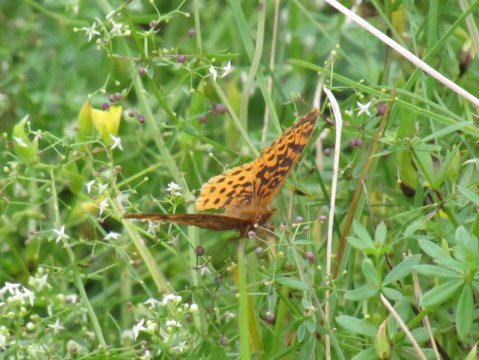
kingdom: Animalia
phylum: Arthropoda
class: Insecta
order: Lepidoptera
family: Nymphalidae
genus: Clossiana
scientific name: Clossiana toddi
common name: Meadow Fritillary
